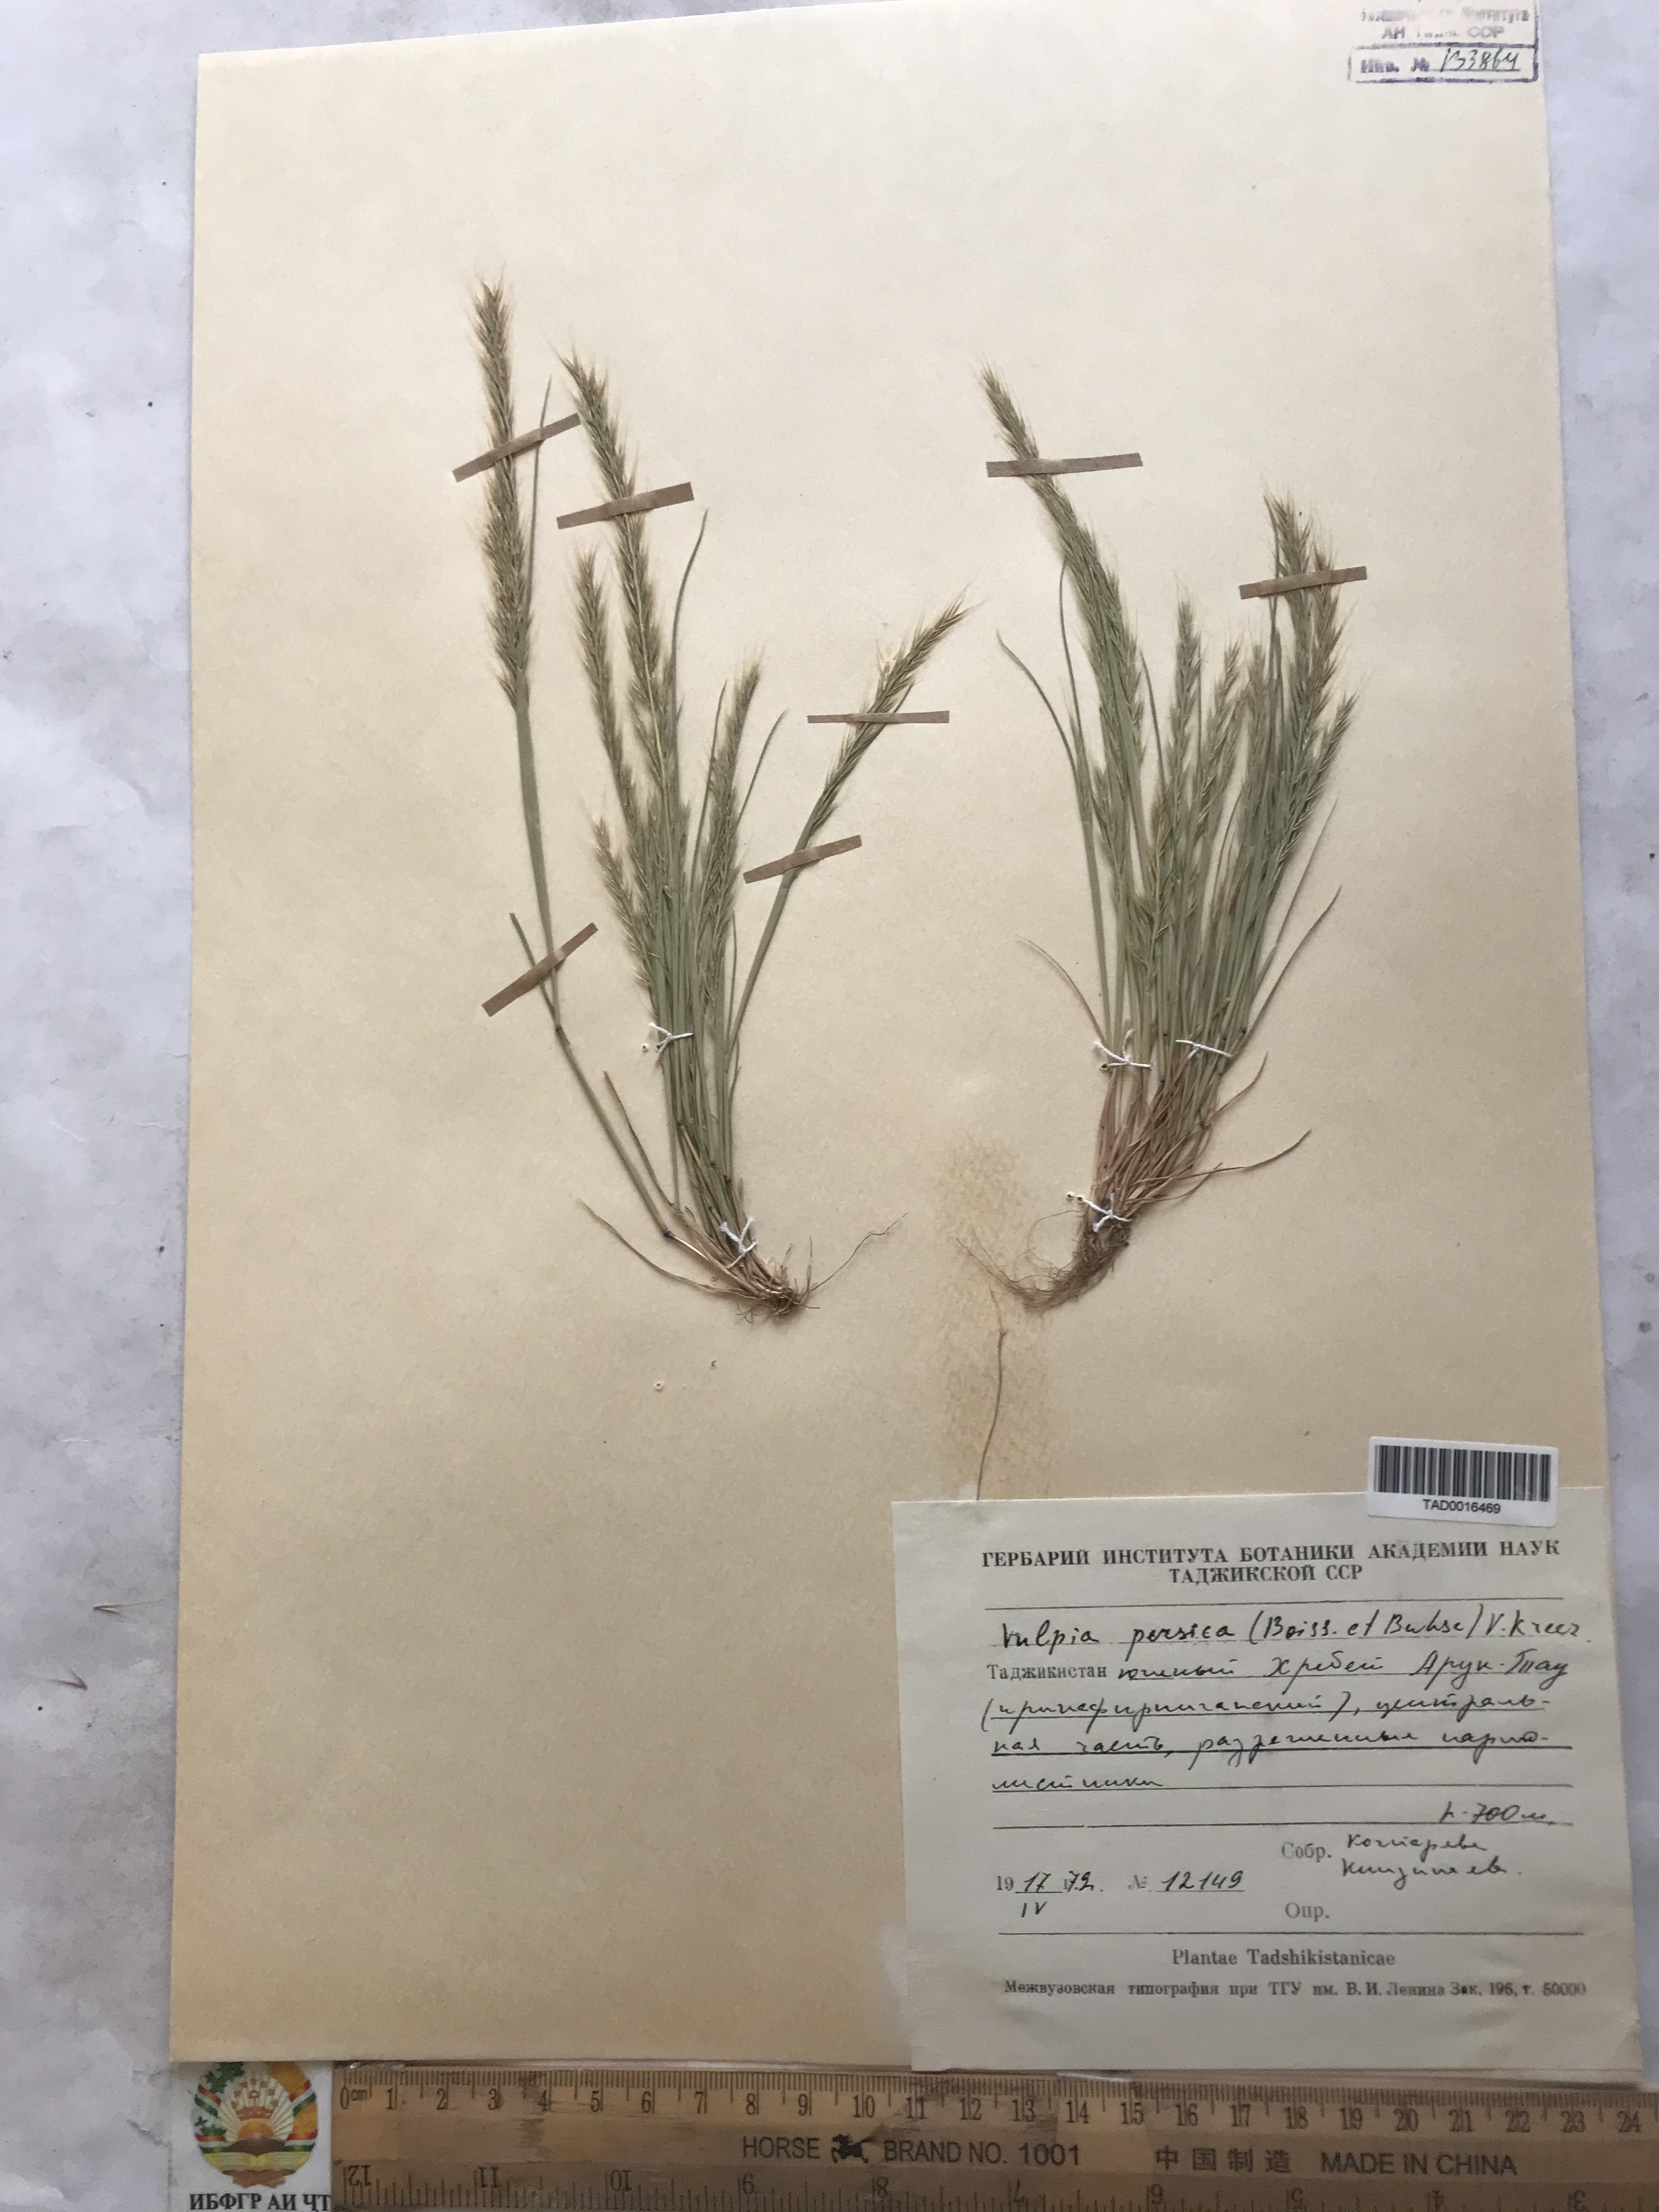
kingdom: Plantae
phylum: Tracheophyta
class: Liliopsida
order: Poales
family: Poaceae
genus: Festuca
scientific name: Festuca Vulpia persica
